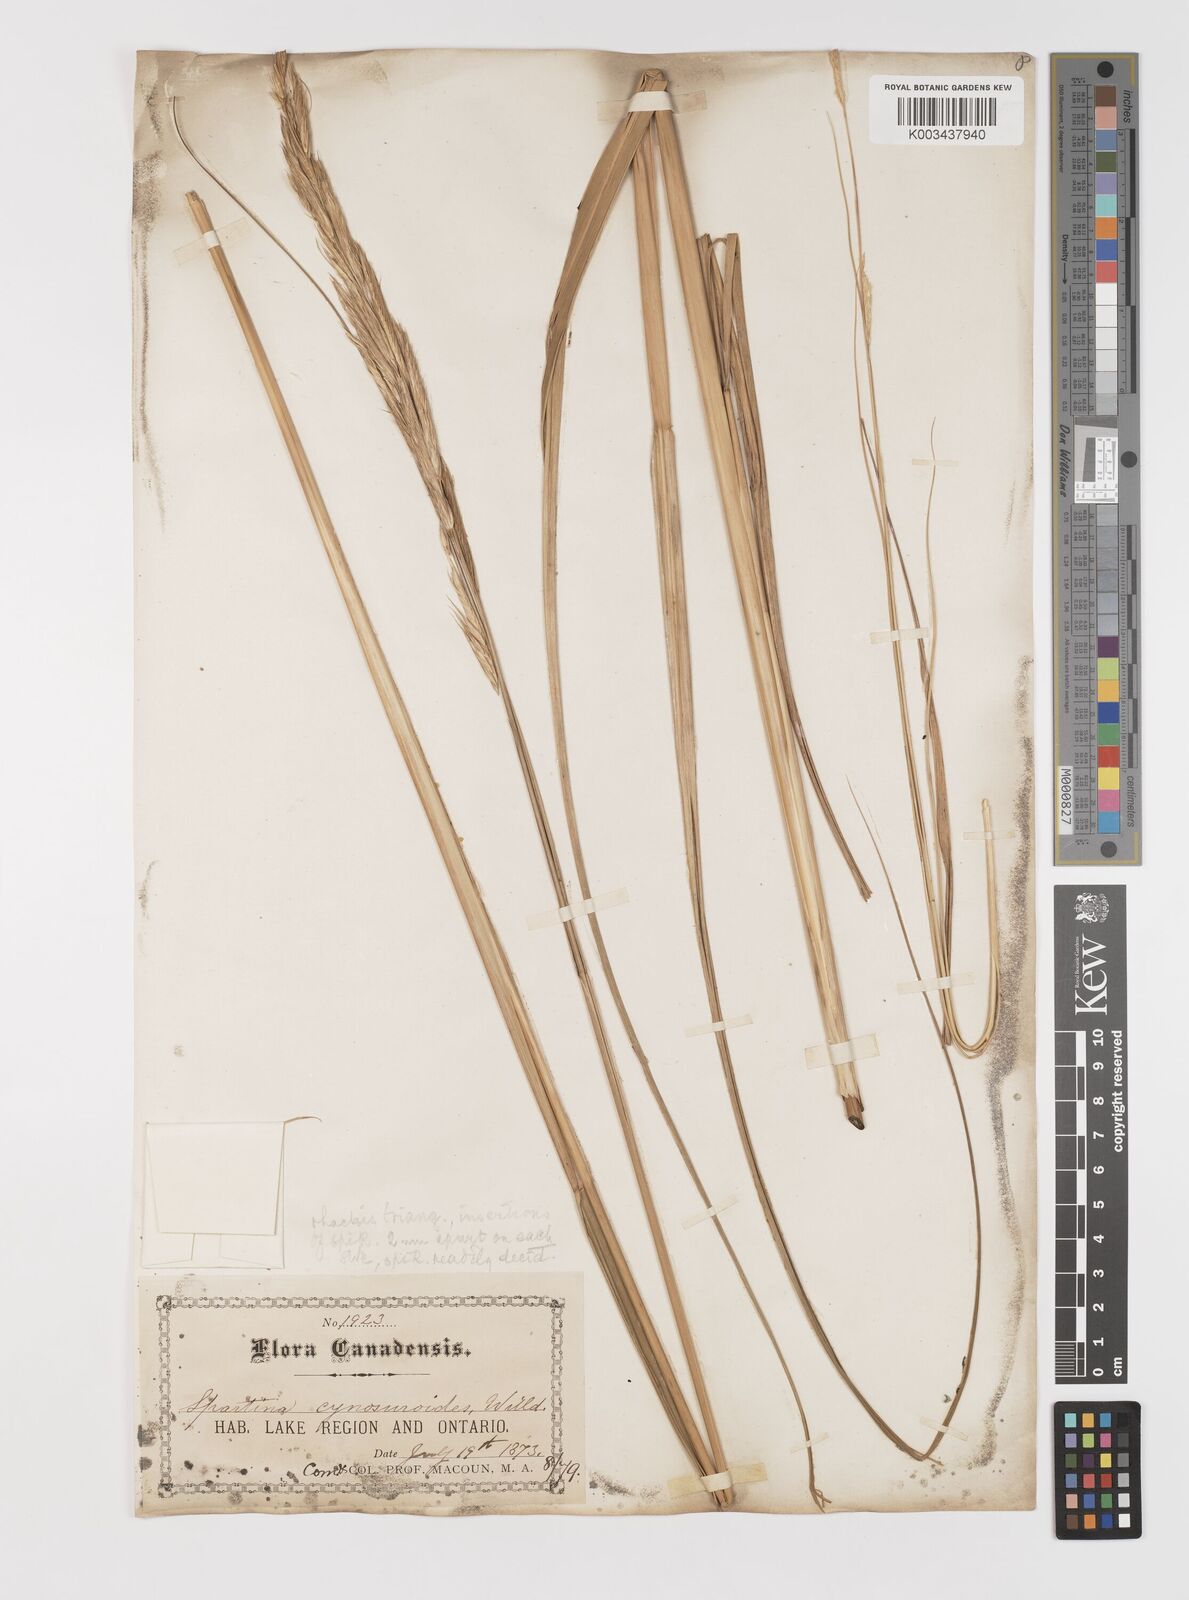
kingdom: Plantae
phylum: Tracheophyta
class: Liliopsida
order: Poales
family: Poaceae
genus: Sporobolus
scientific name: Sporobolus michauxianus
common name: Freshwater cordgrass
